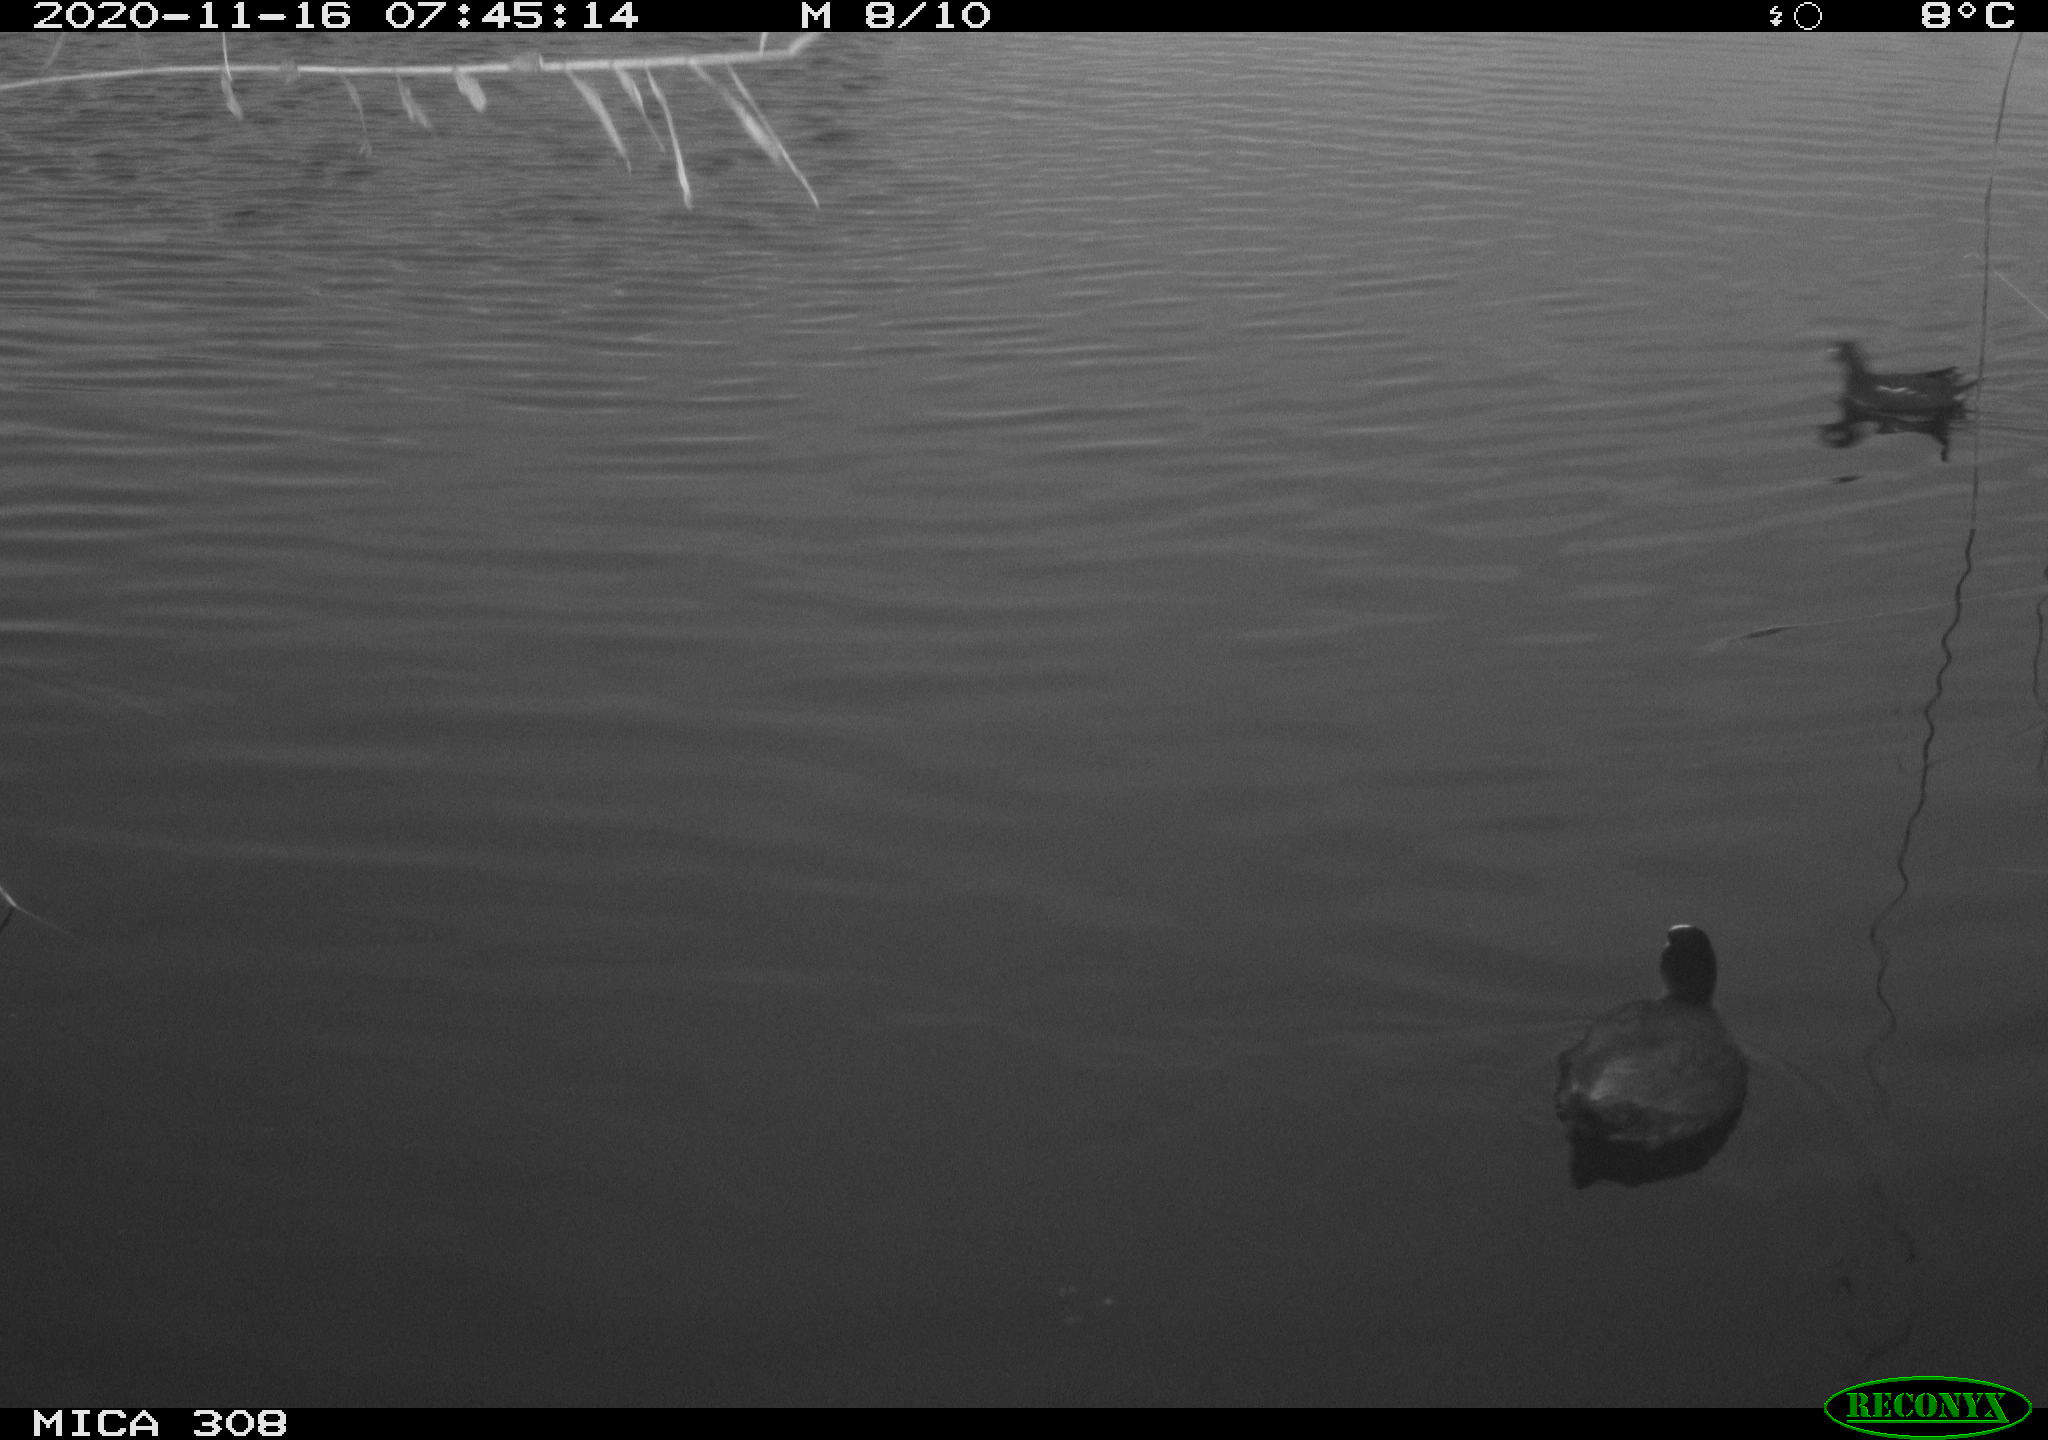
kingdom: Animalia
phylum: Chordata
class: Aves
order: Gruiformes
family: Rallidae
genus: Fulica
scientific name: Fulica atra
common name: Eurasian coot
